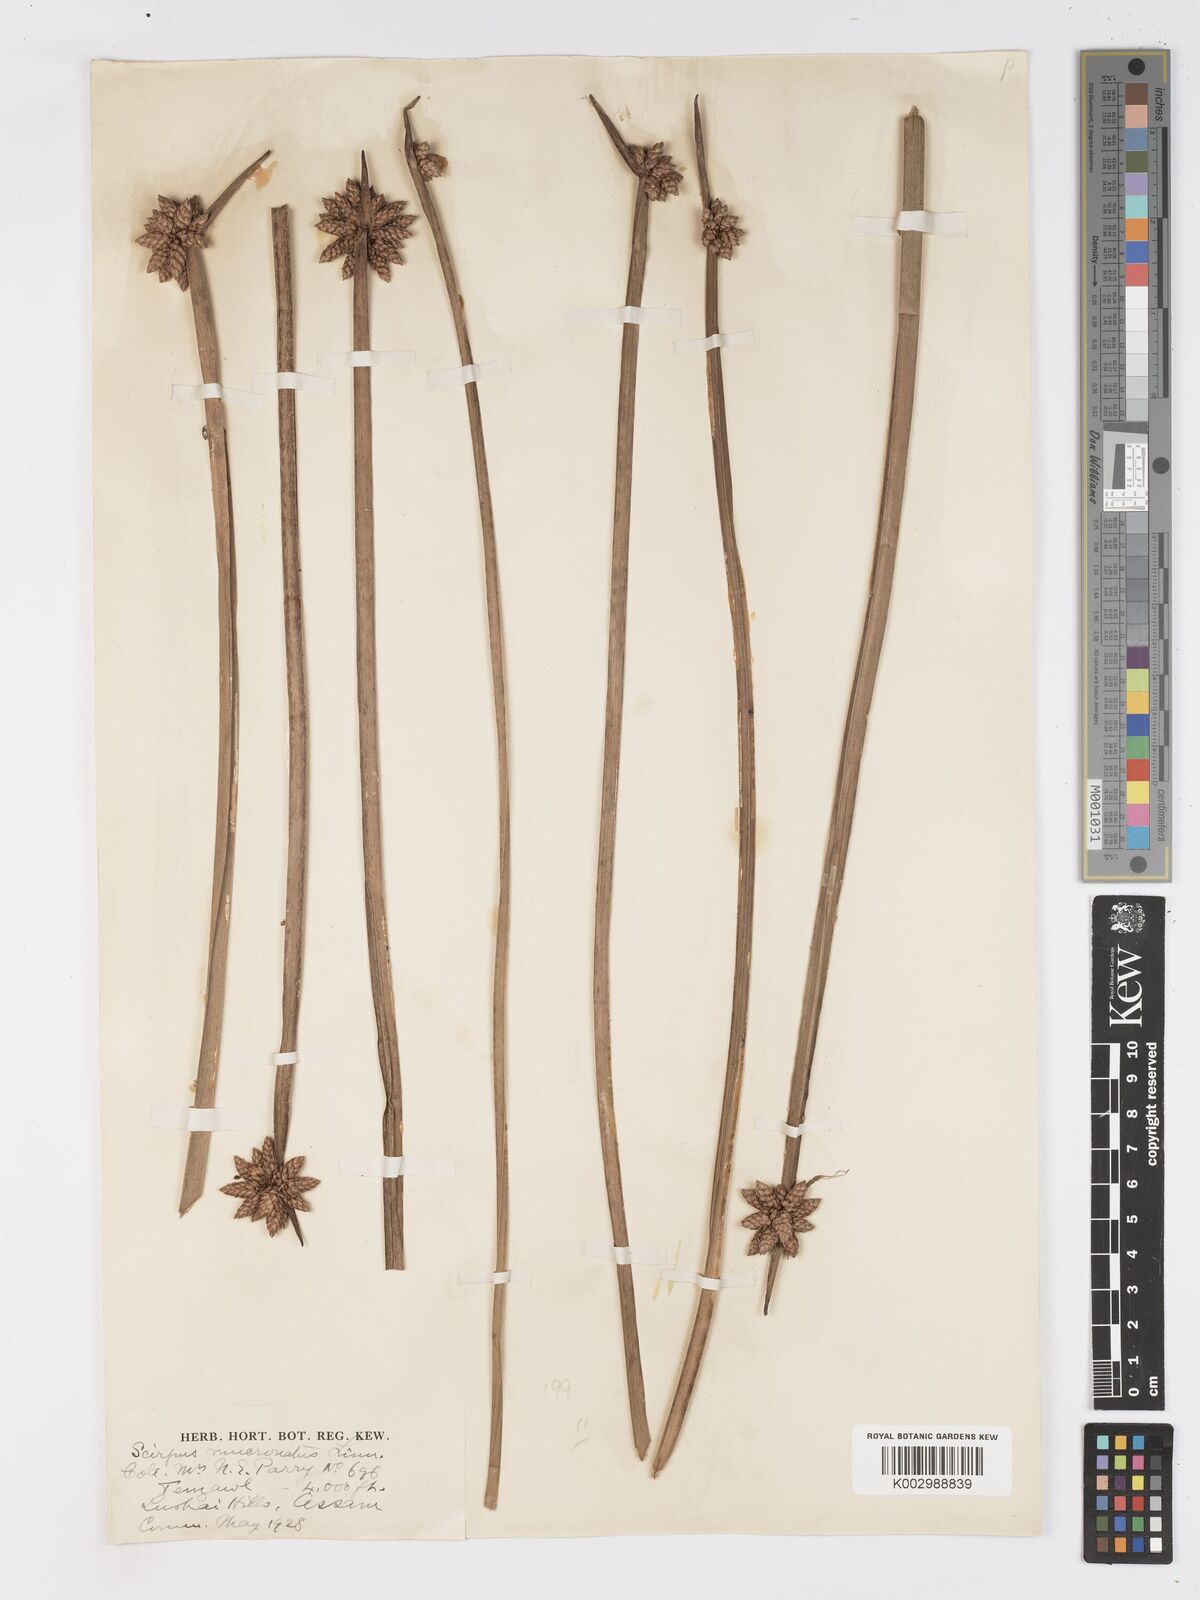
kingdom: Plantae
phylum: Tracheophyta
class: Liliopsida
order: Poales
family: Cyperaceae
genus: Schoenoplectiella
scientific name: Schoenoplectiella mucronata
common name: Bog bulrush
